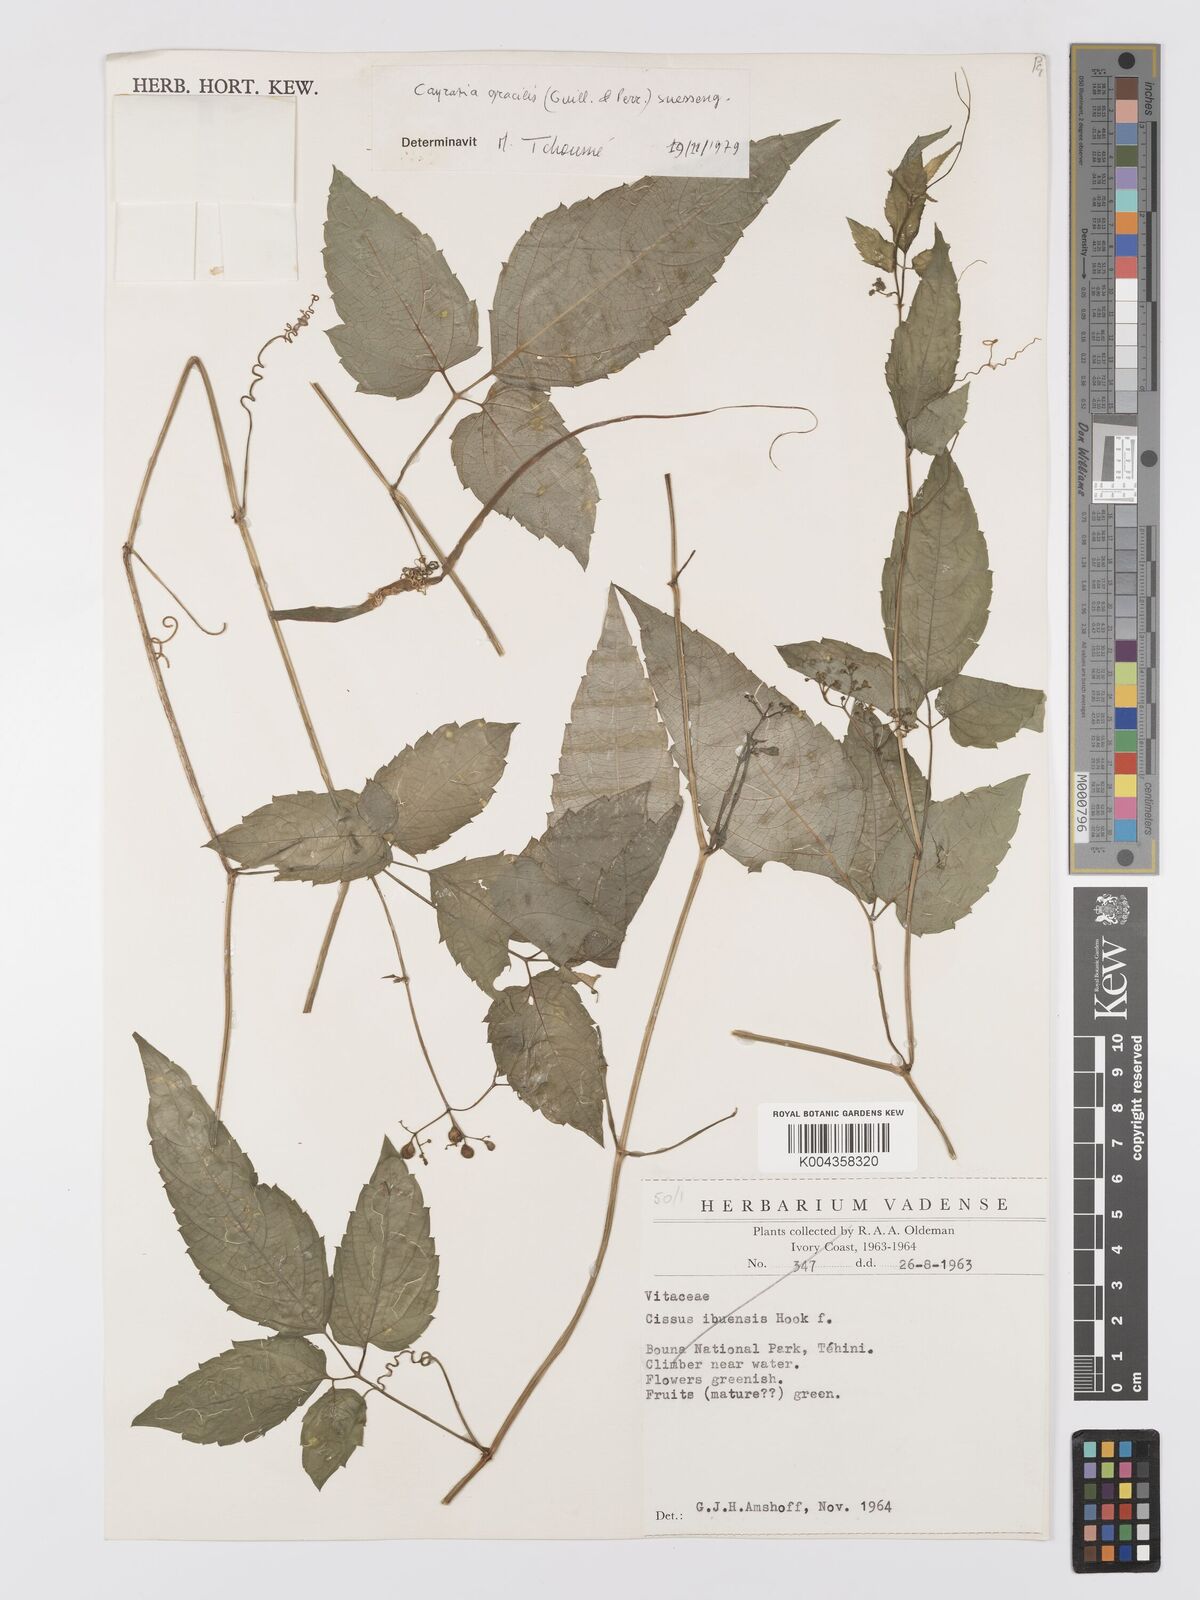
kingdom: Plantae
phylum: Tracheophyta
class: Magnoliopsida
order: Vitales
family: Vitaceae
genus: Afrocayratia
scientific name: Afrocayratia gracilis
